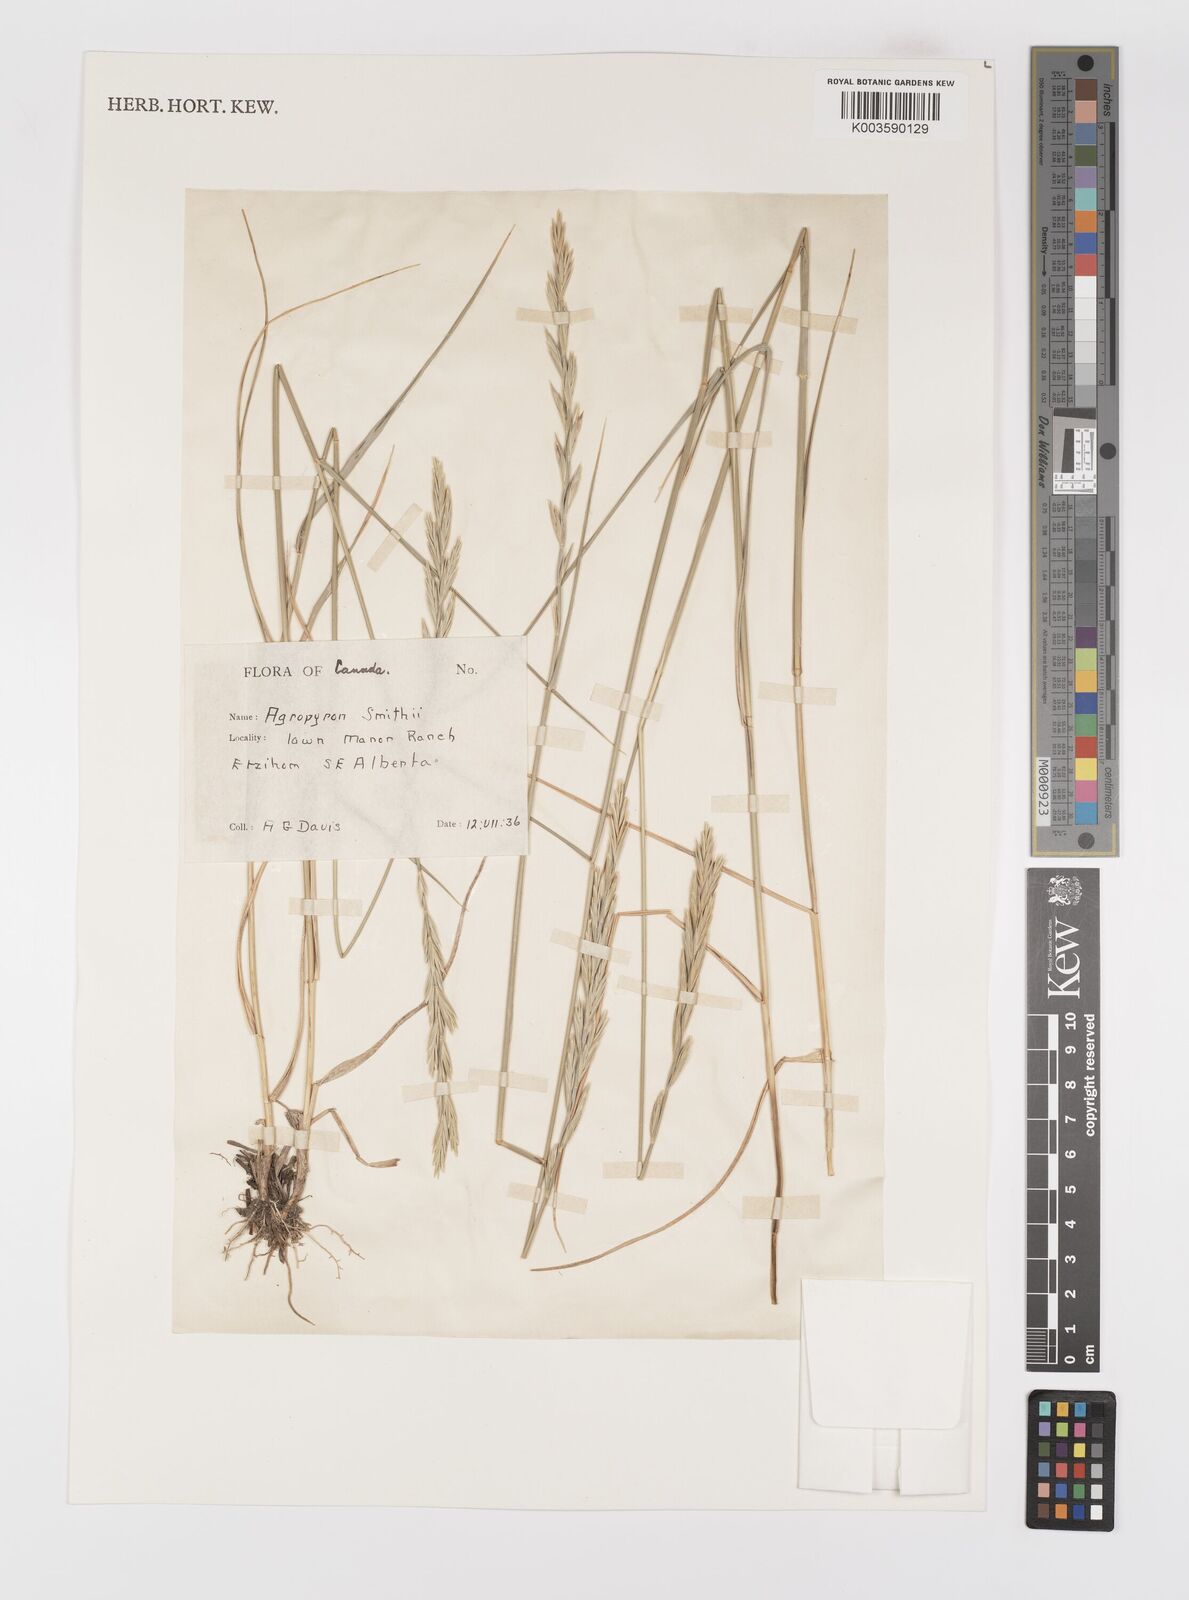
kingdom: Plantae
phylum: Tracheophyta
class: Liliopsida
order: Poales
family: Poaceae
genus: Elymus
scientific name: Elymus smithii
